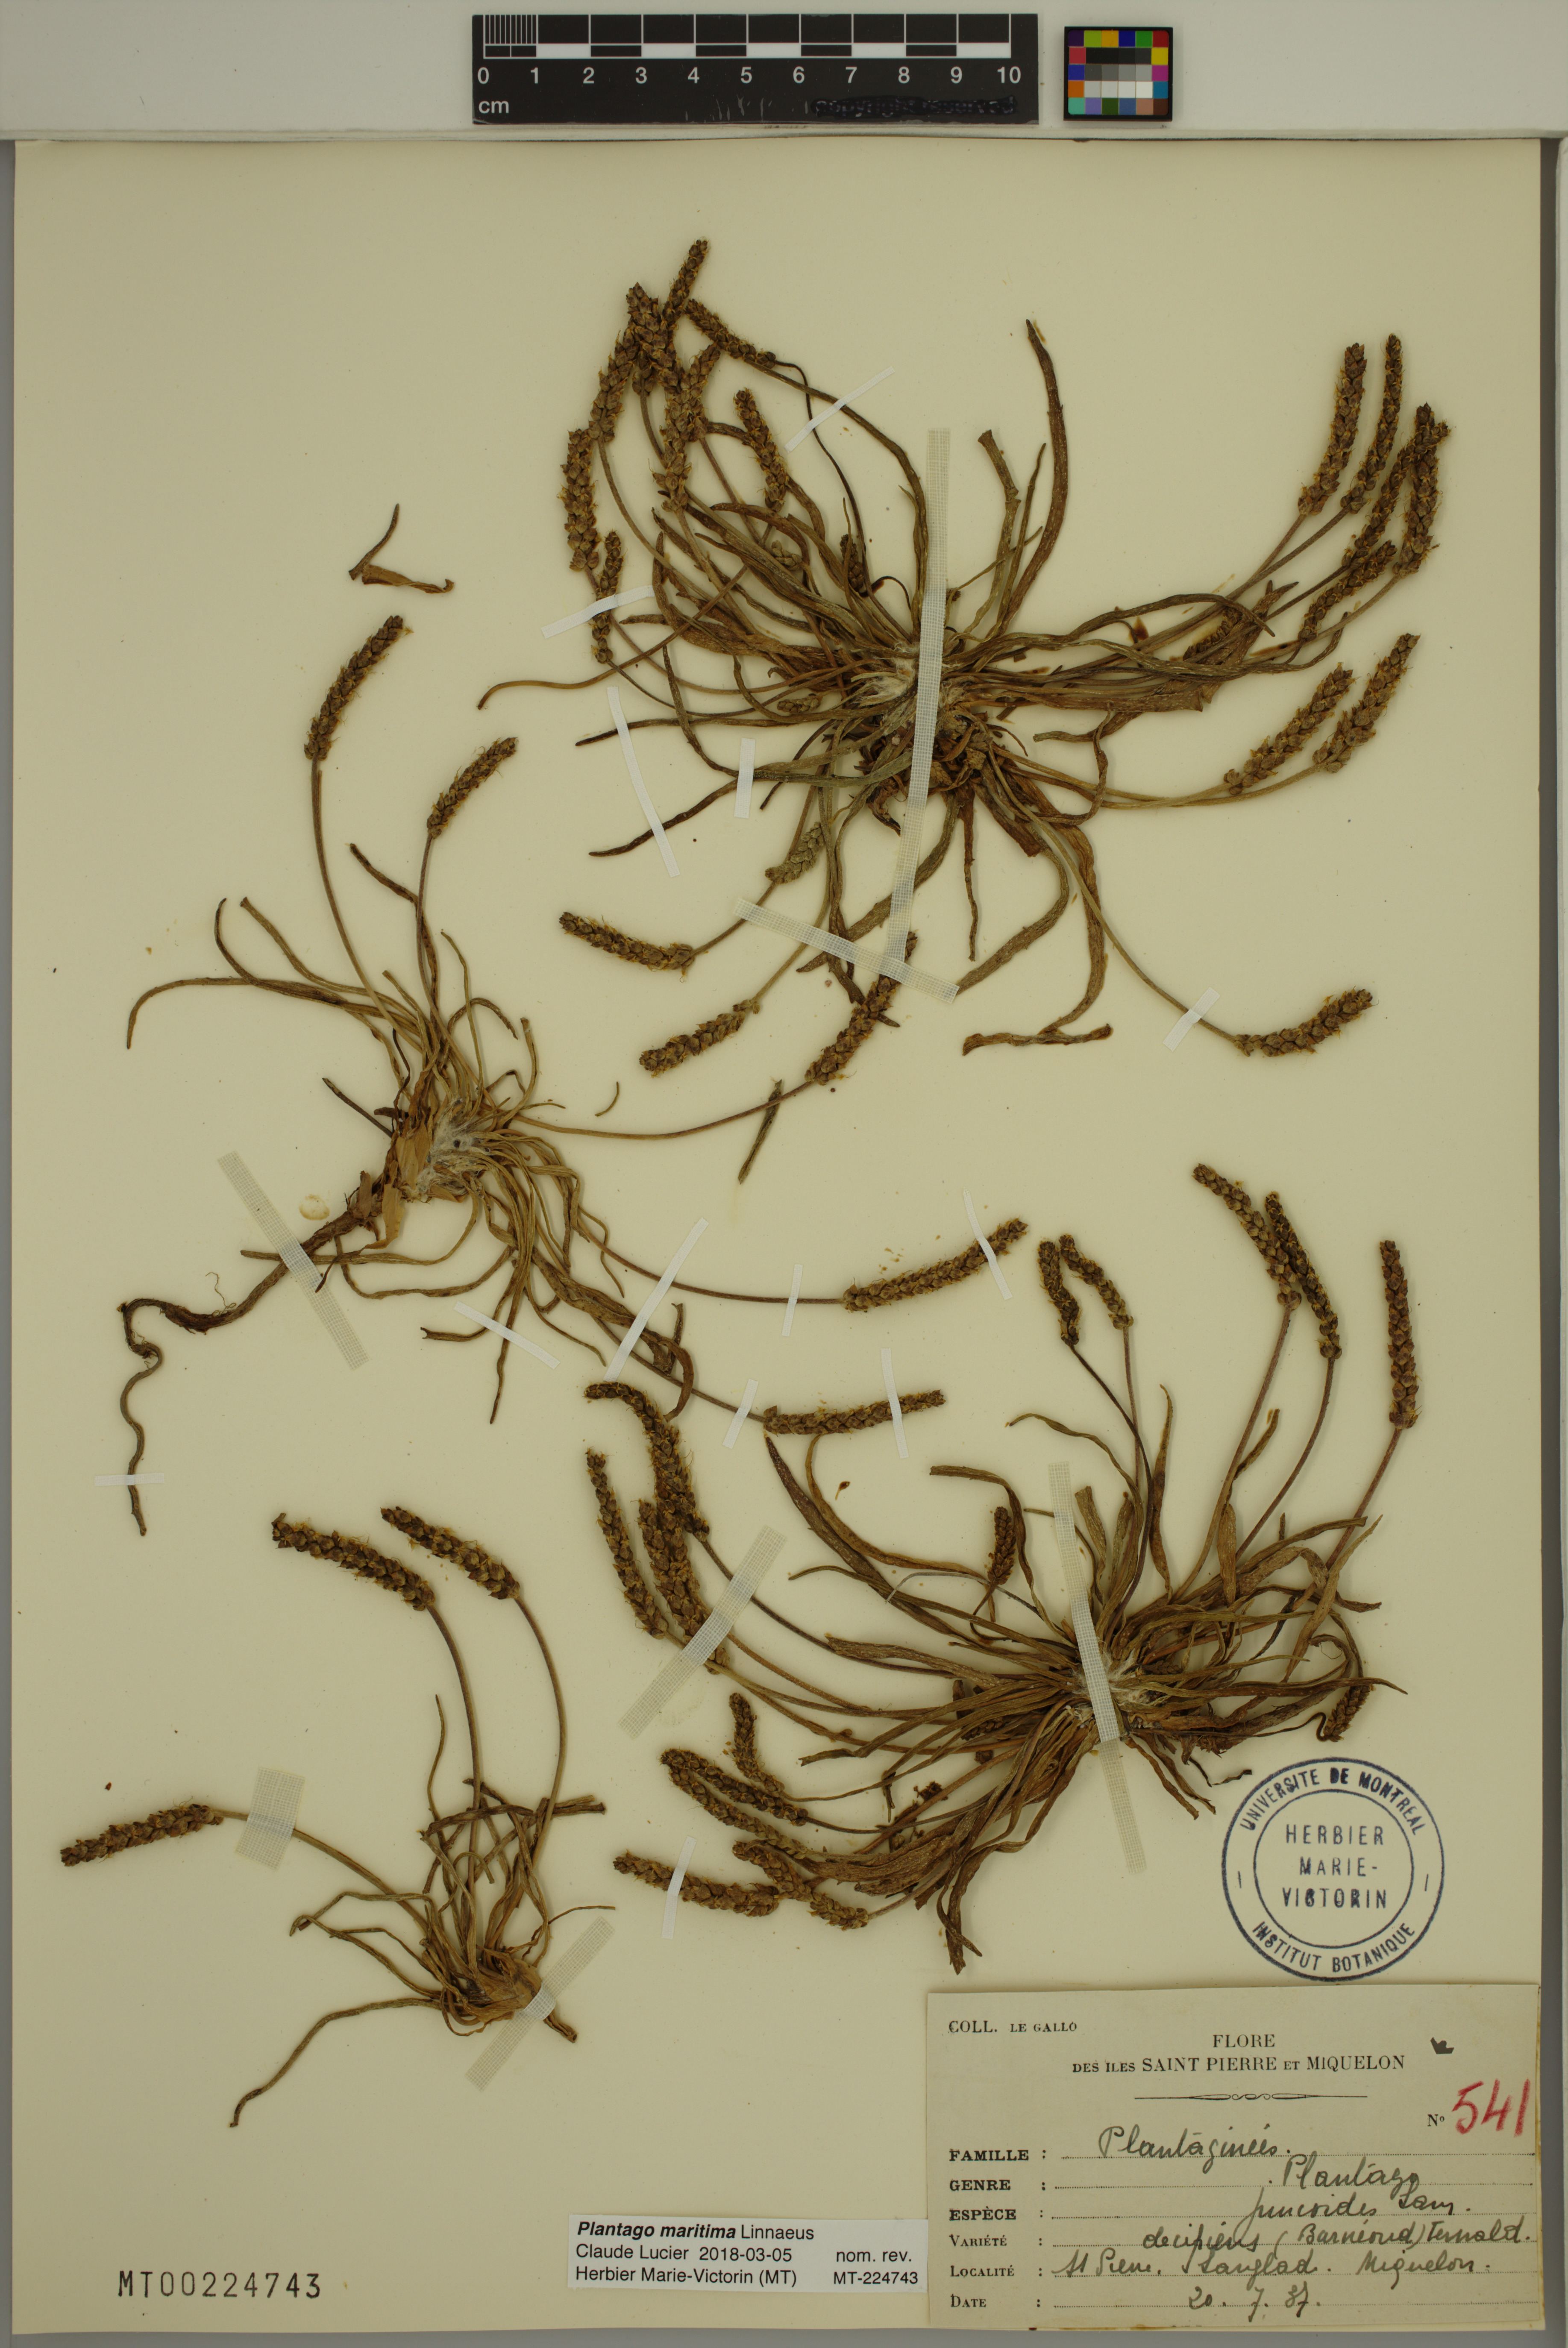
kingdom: Plantae
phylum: Tracheophyta
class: Magnoliopsida
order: Lamiales
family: Plantaginaceae
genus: Plantago
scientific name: Plantago maritima
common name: Sea plantain
